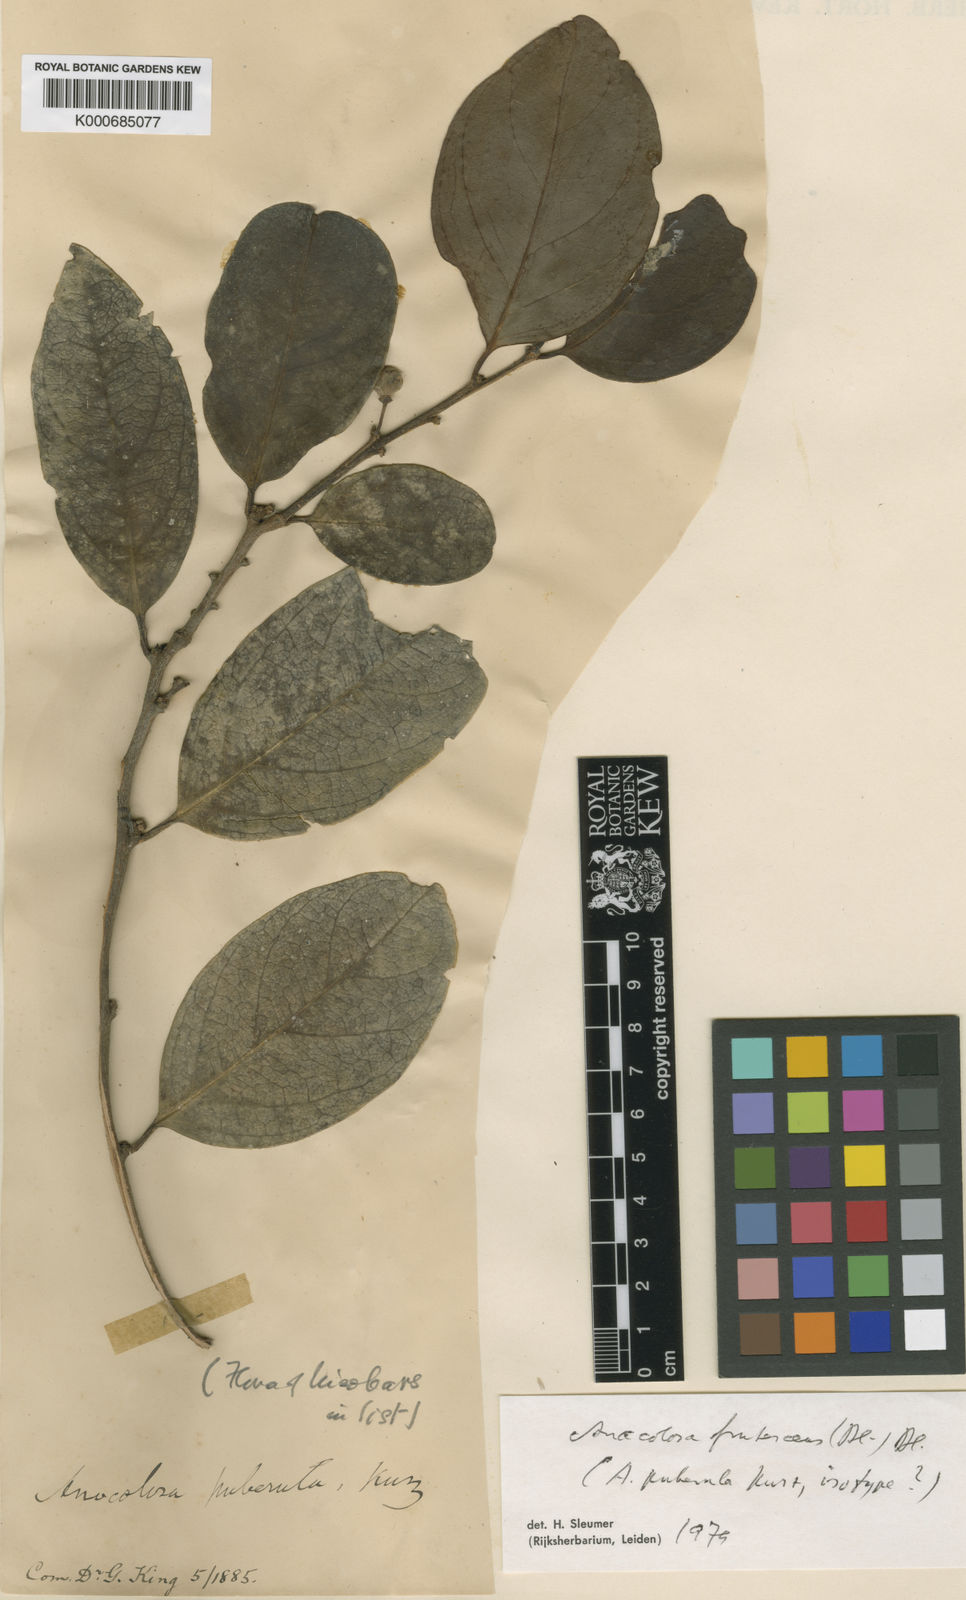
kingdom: Plantae
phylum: Tracheophyta
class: Magnoliopsida
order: Santalales
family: Aptandraceae
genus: Anacolosa
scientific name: Anacolosa frutescens
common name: Galo nut
